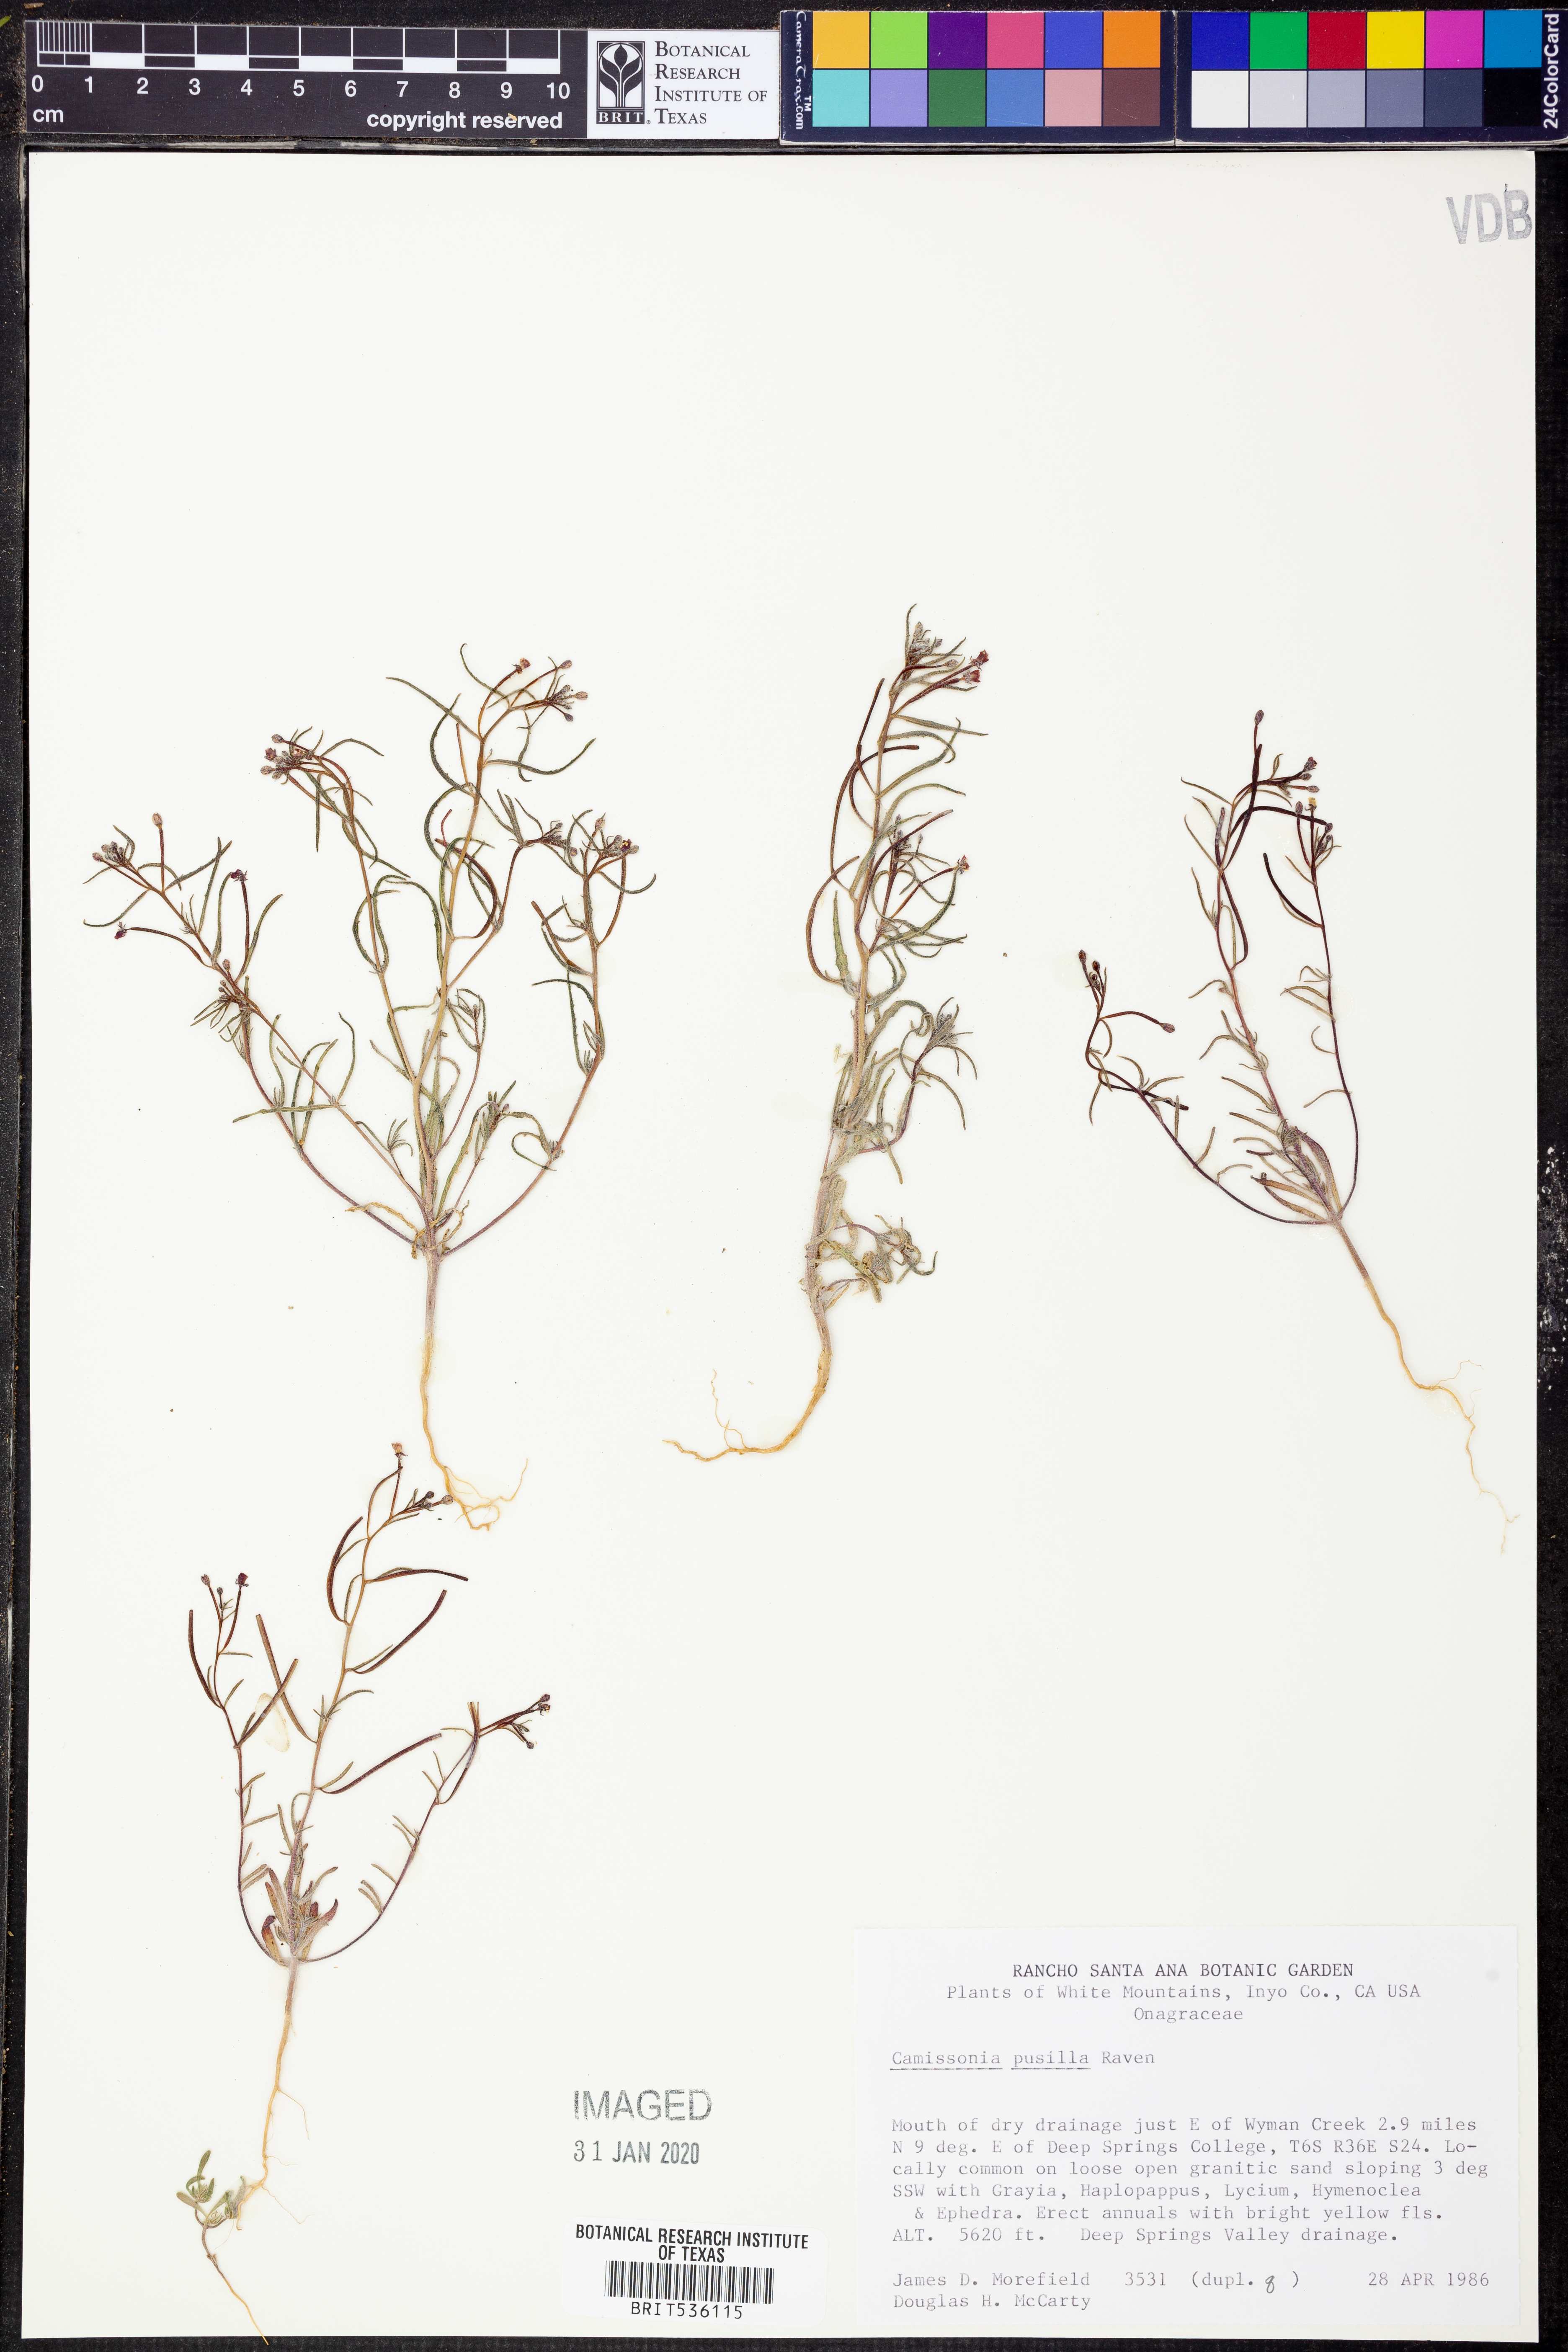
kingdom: Plantae
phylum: Tracheophyta
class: Magnoliopsida
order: Myrtales
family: Onagraceae
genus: Camissonia
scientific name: Camissonia pusilla
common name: Obscure camissonia
